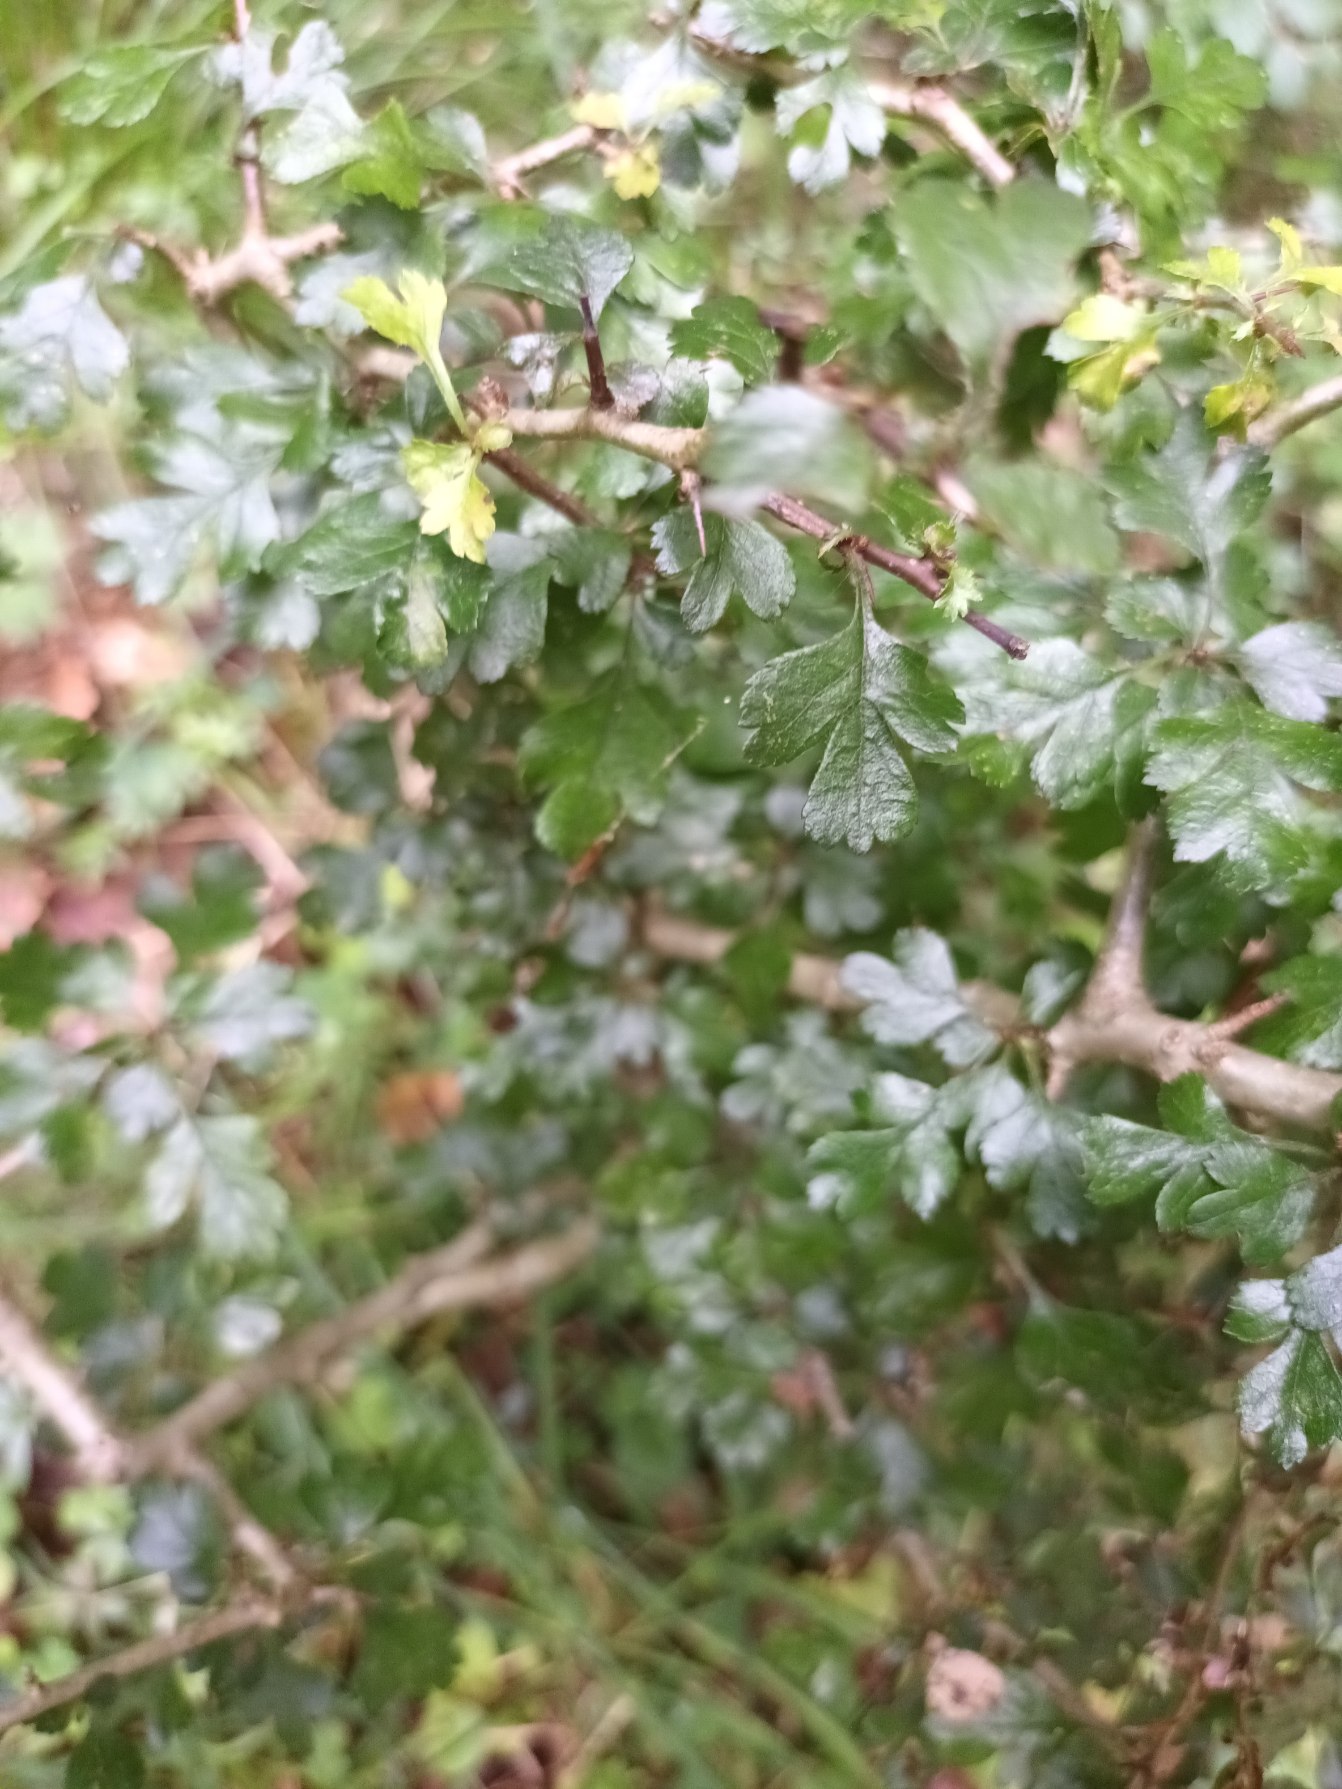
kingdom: Plantae
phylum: Tracheophyta
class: Magnoliopsida
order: Rosales
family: Rosaceae
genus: Crataegus
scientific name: Crataegus media
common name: Almindelig hvidtjørn × engriflet hvidtjørn
